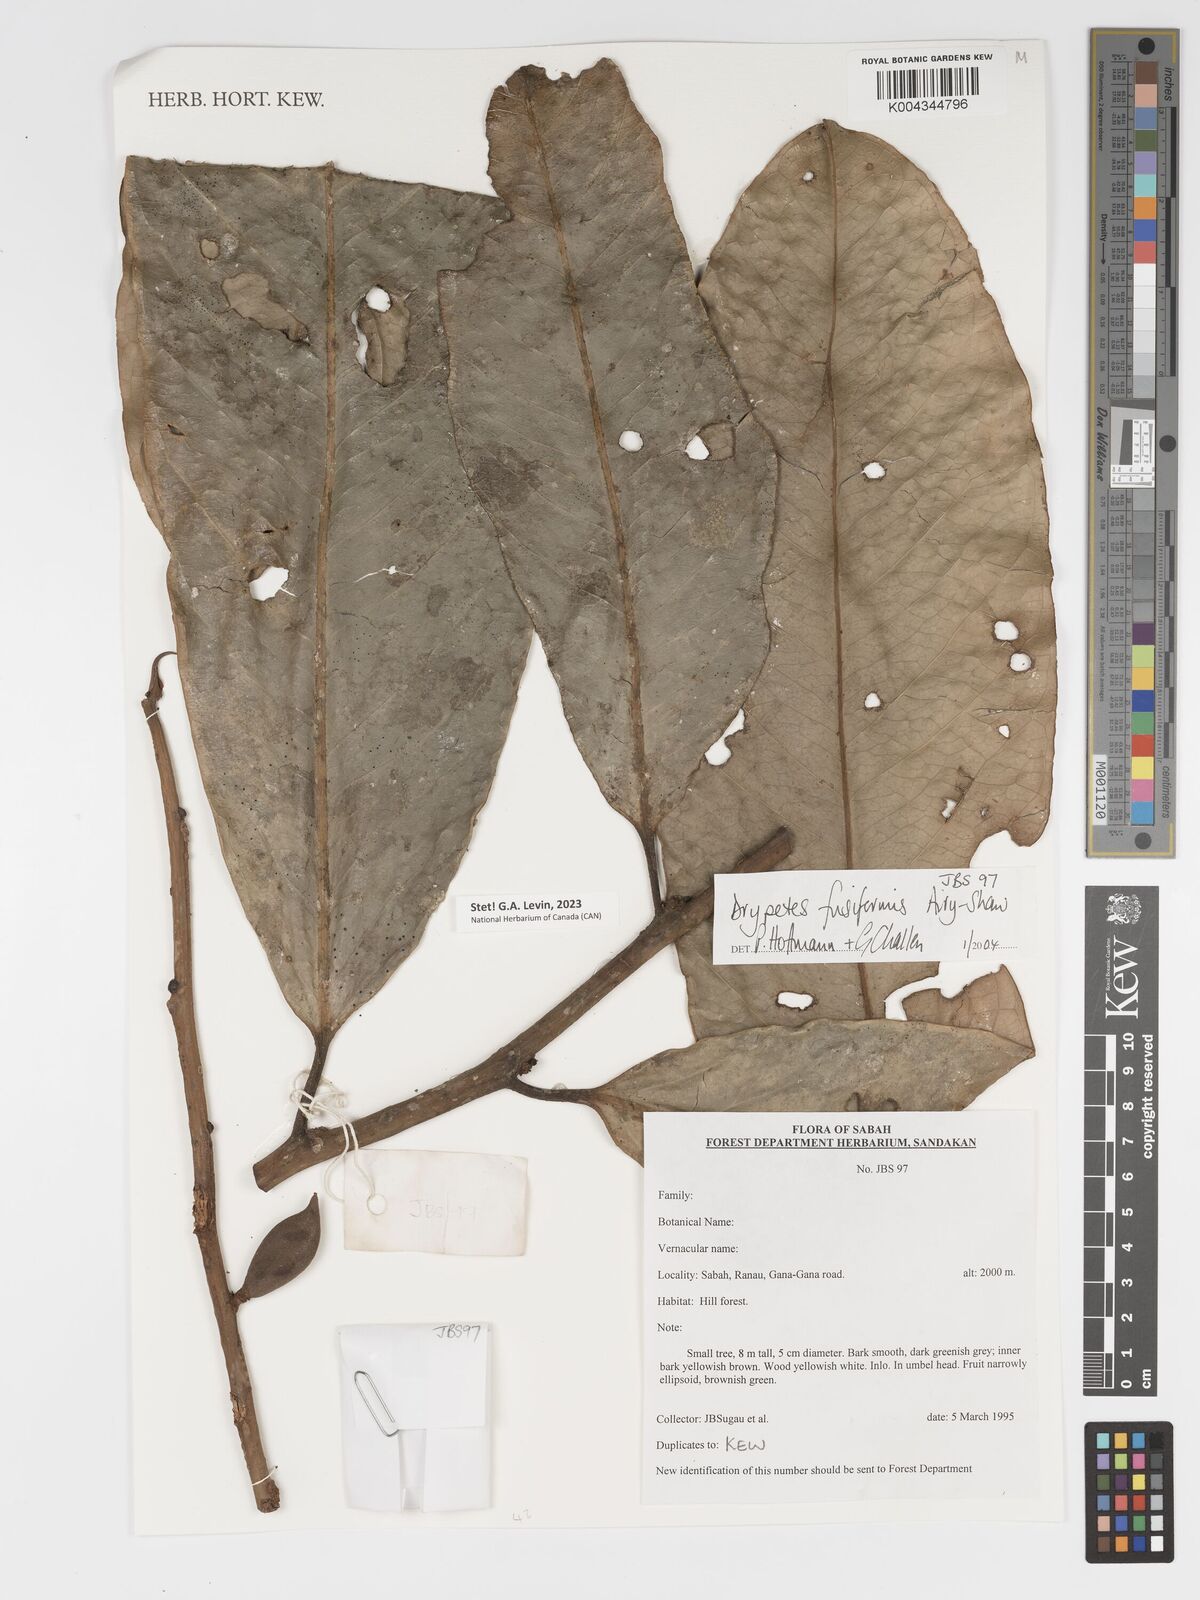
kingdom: Plantae
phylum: Tracheophyta
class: Magnoliopsida
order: Malpighiales
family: Putranjivaceae
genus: Drypetes
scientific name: Drypetes fusiformis
